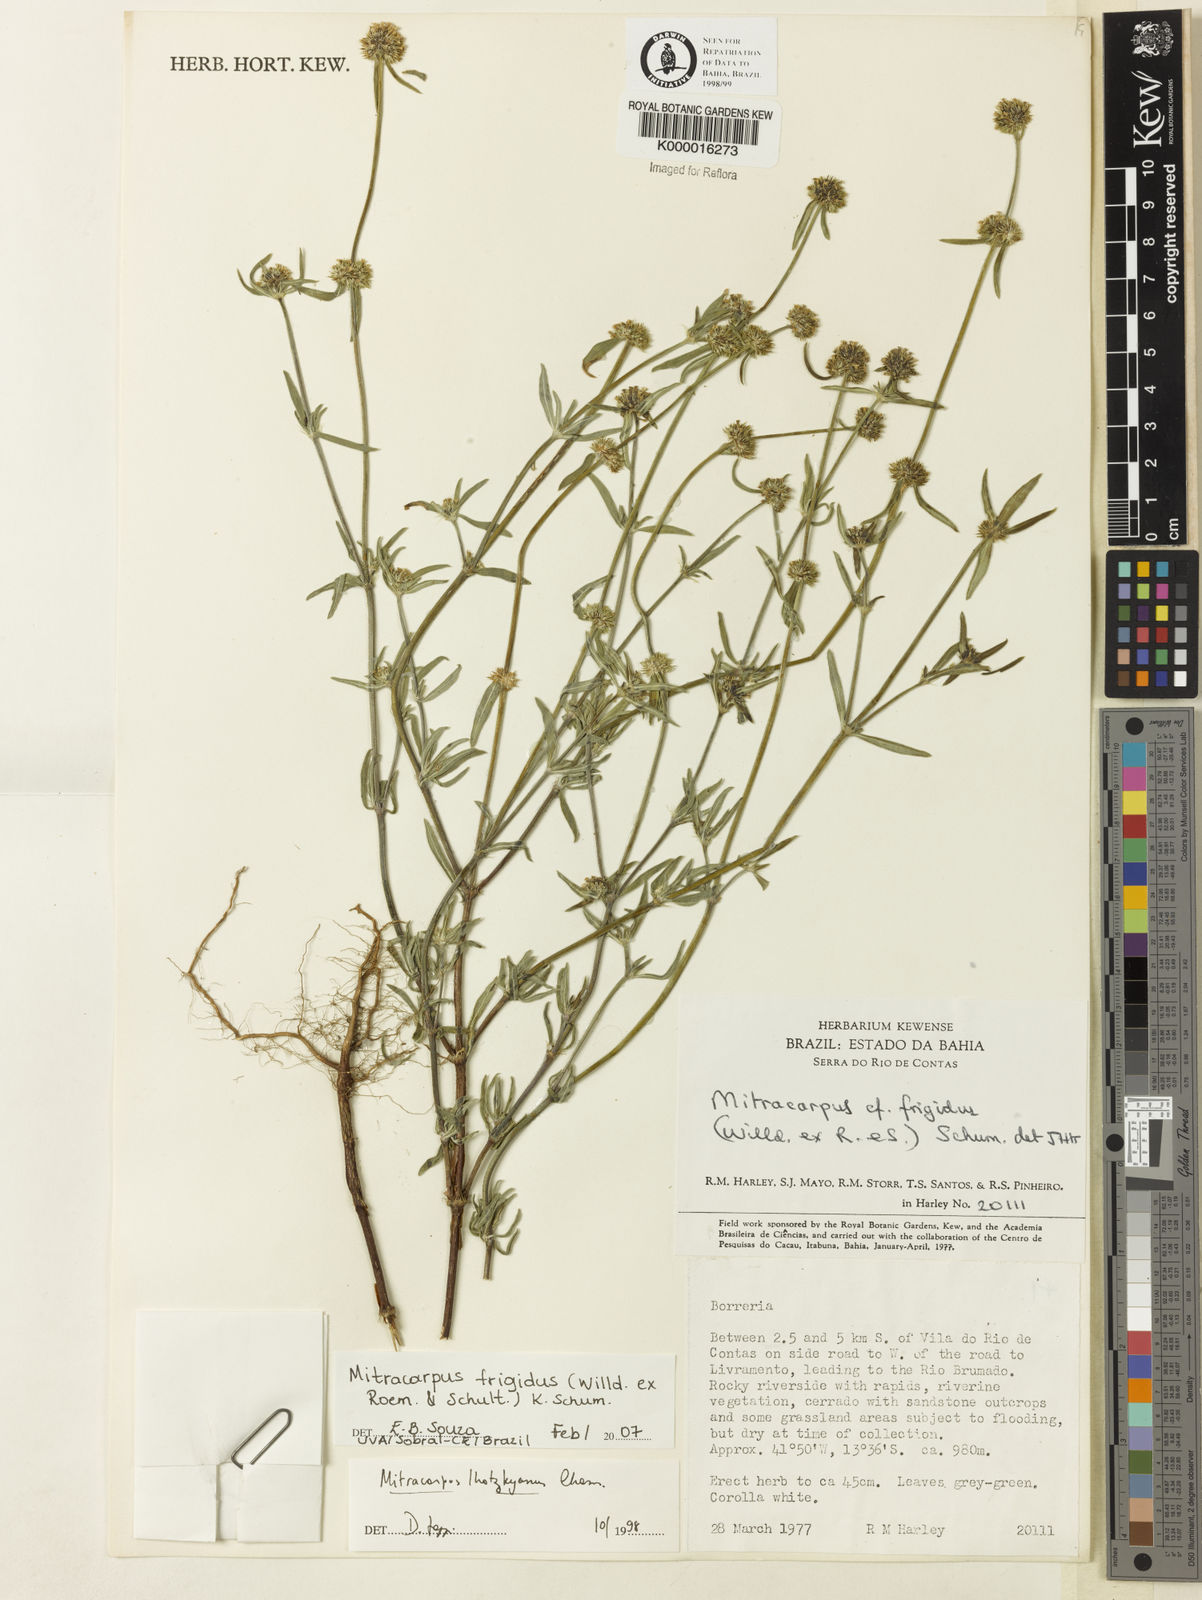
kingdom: Plantae
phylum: Tracheophyta
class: Magnoliopsida
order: Gentianales
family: Rubiaceae
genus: Mitracarpus
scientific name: Mitracarpus frigidus
